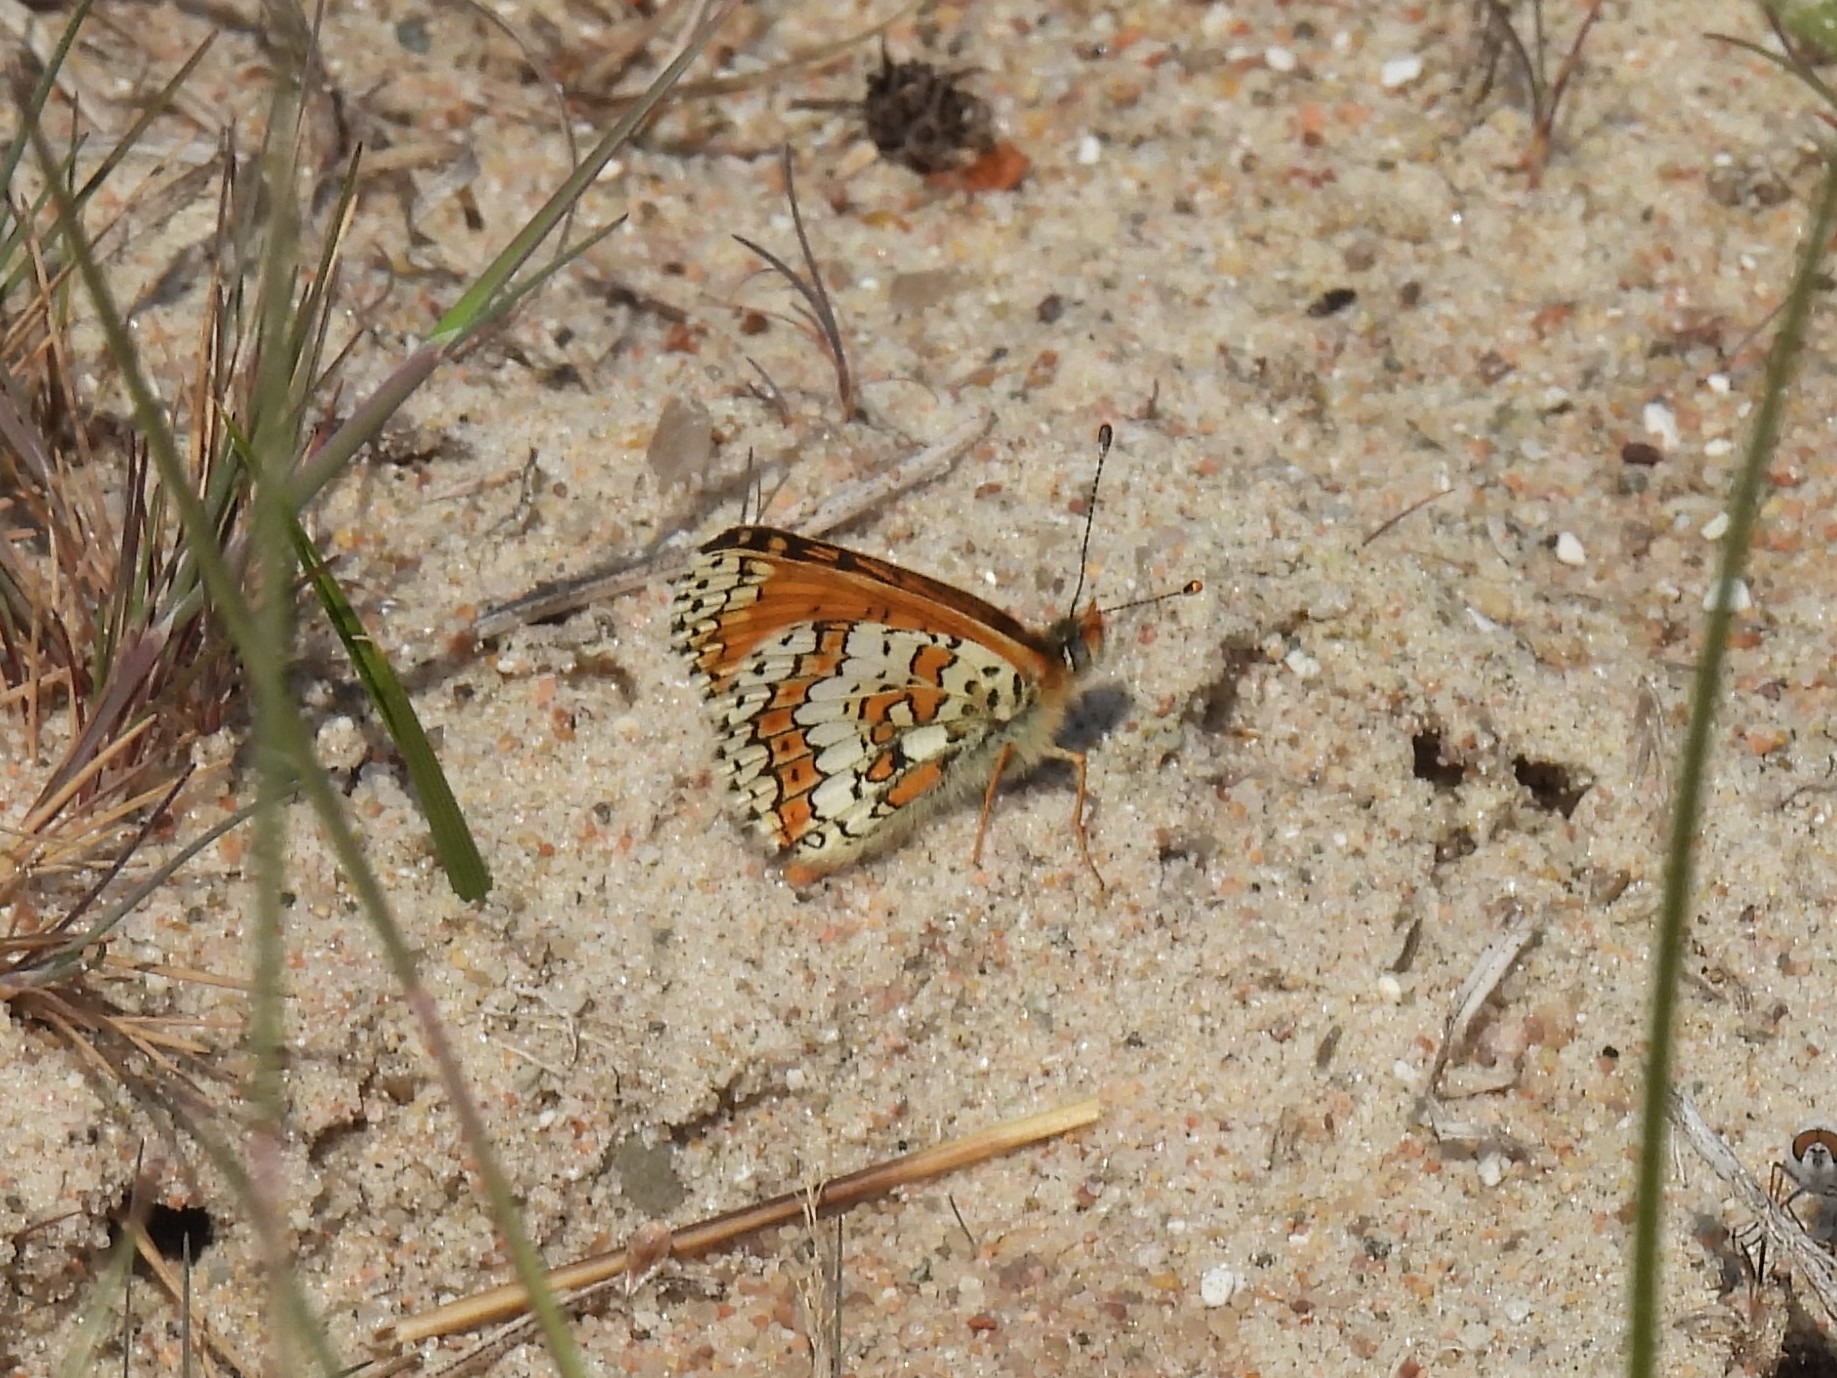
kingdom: Animalia
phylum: Arthropoda
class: Insecta
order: Lepidoptera
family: Nymphalidae
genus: Melitaea
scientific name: Melitaea cinxia
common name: Okkergul pletvinge
